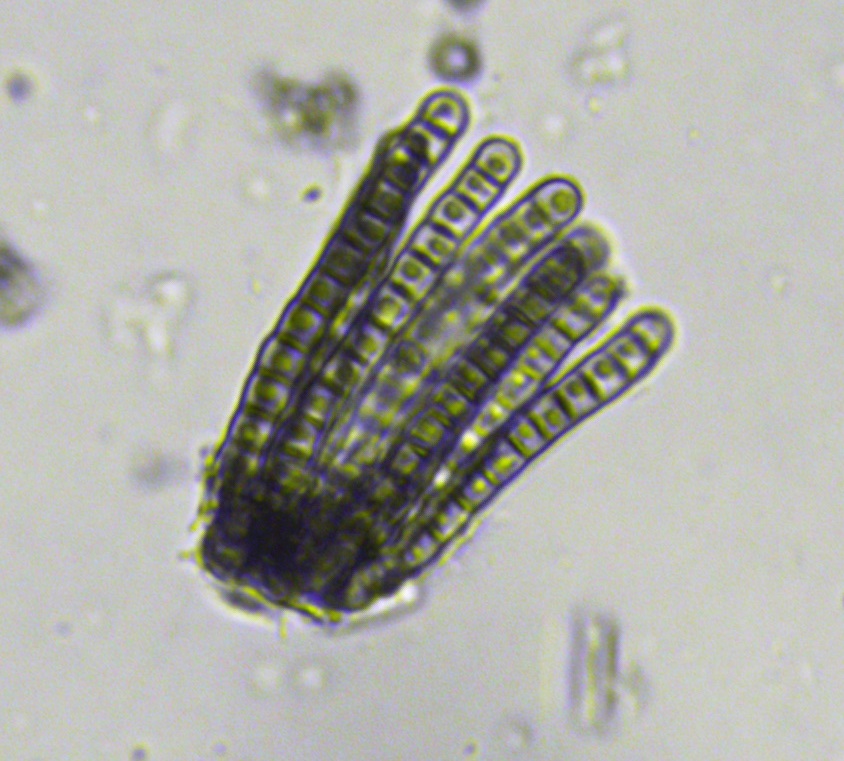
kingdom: Fungi
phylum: Ascomycota
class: Dothideomycetes
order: Pleosporales
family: Cryptocoryneaceae
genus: Cryptocoryneum
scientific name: Cryptocoryneum condensatum
